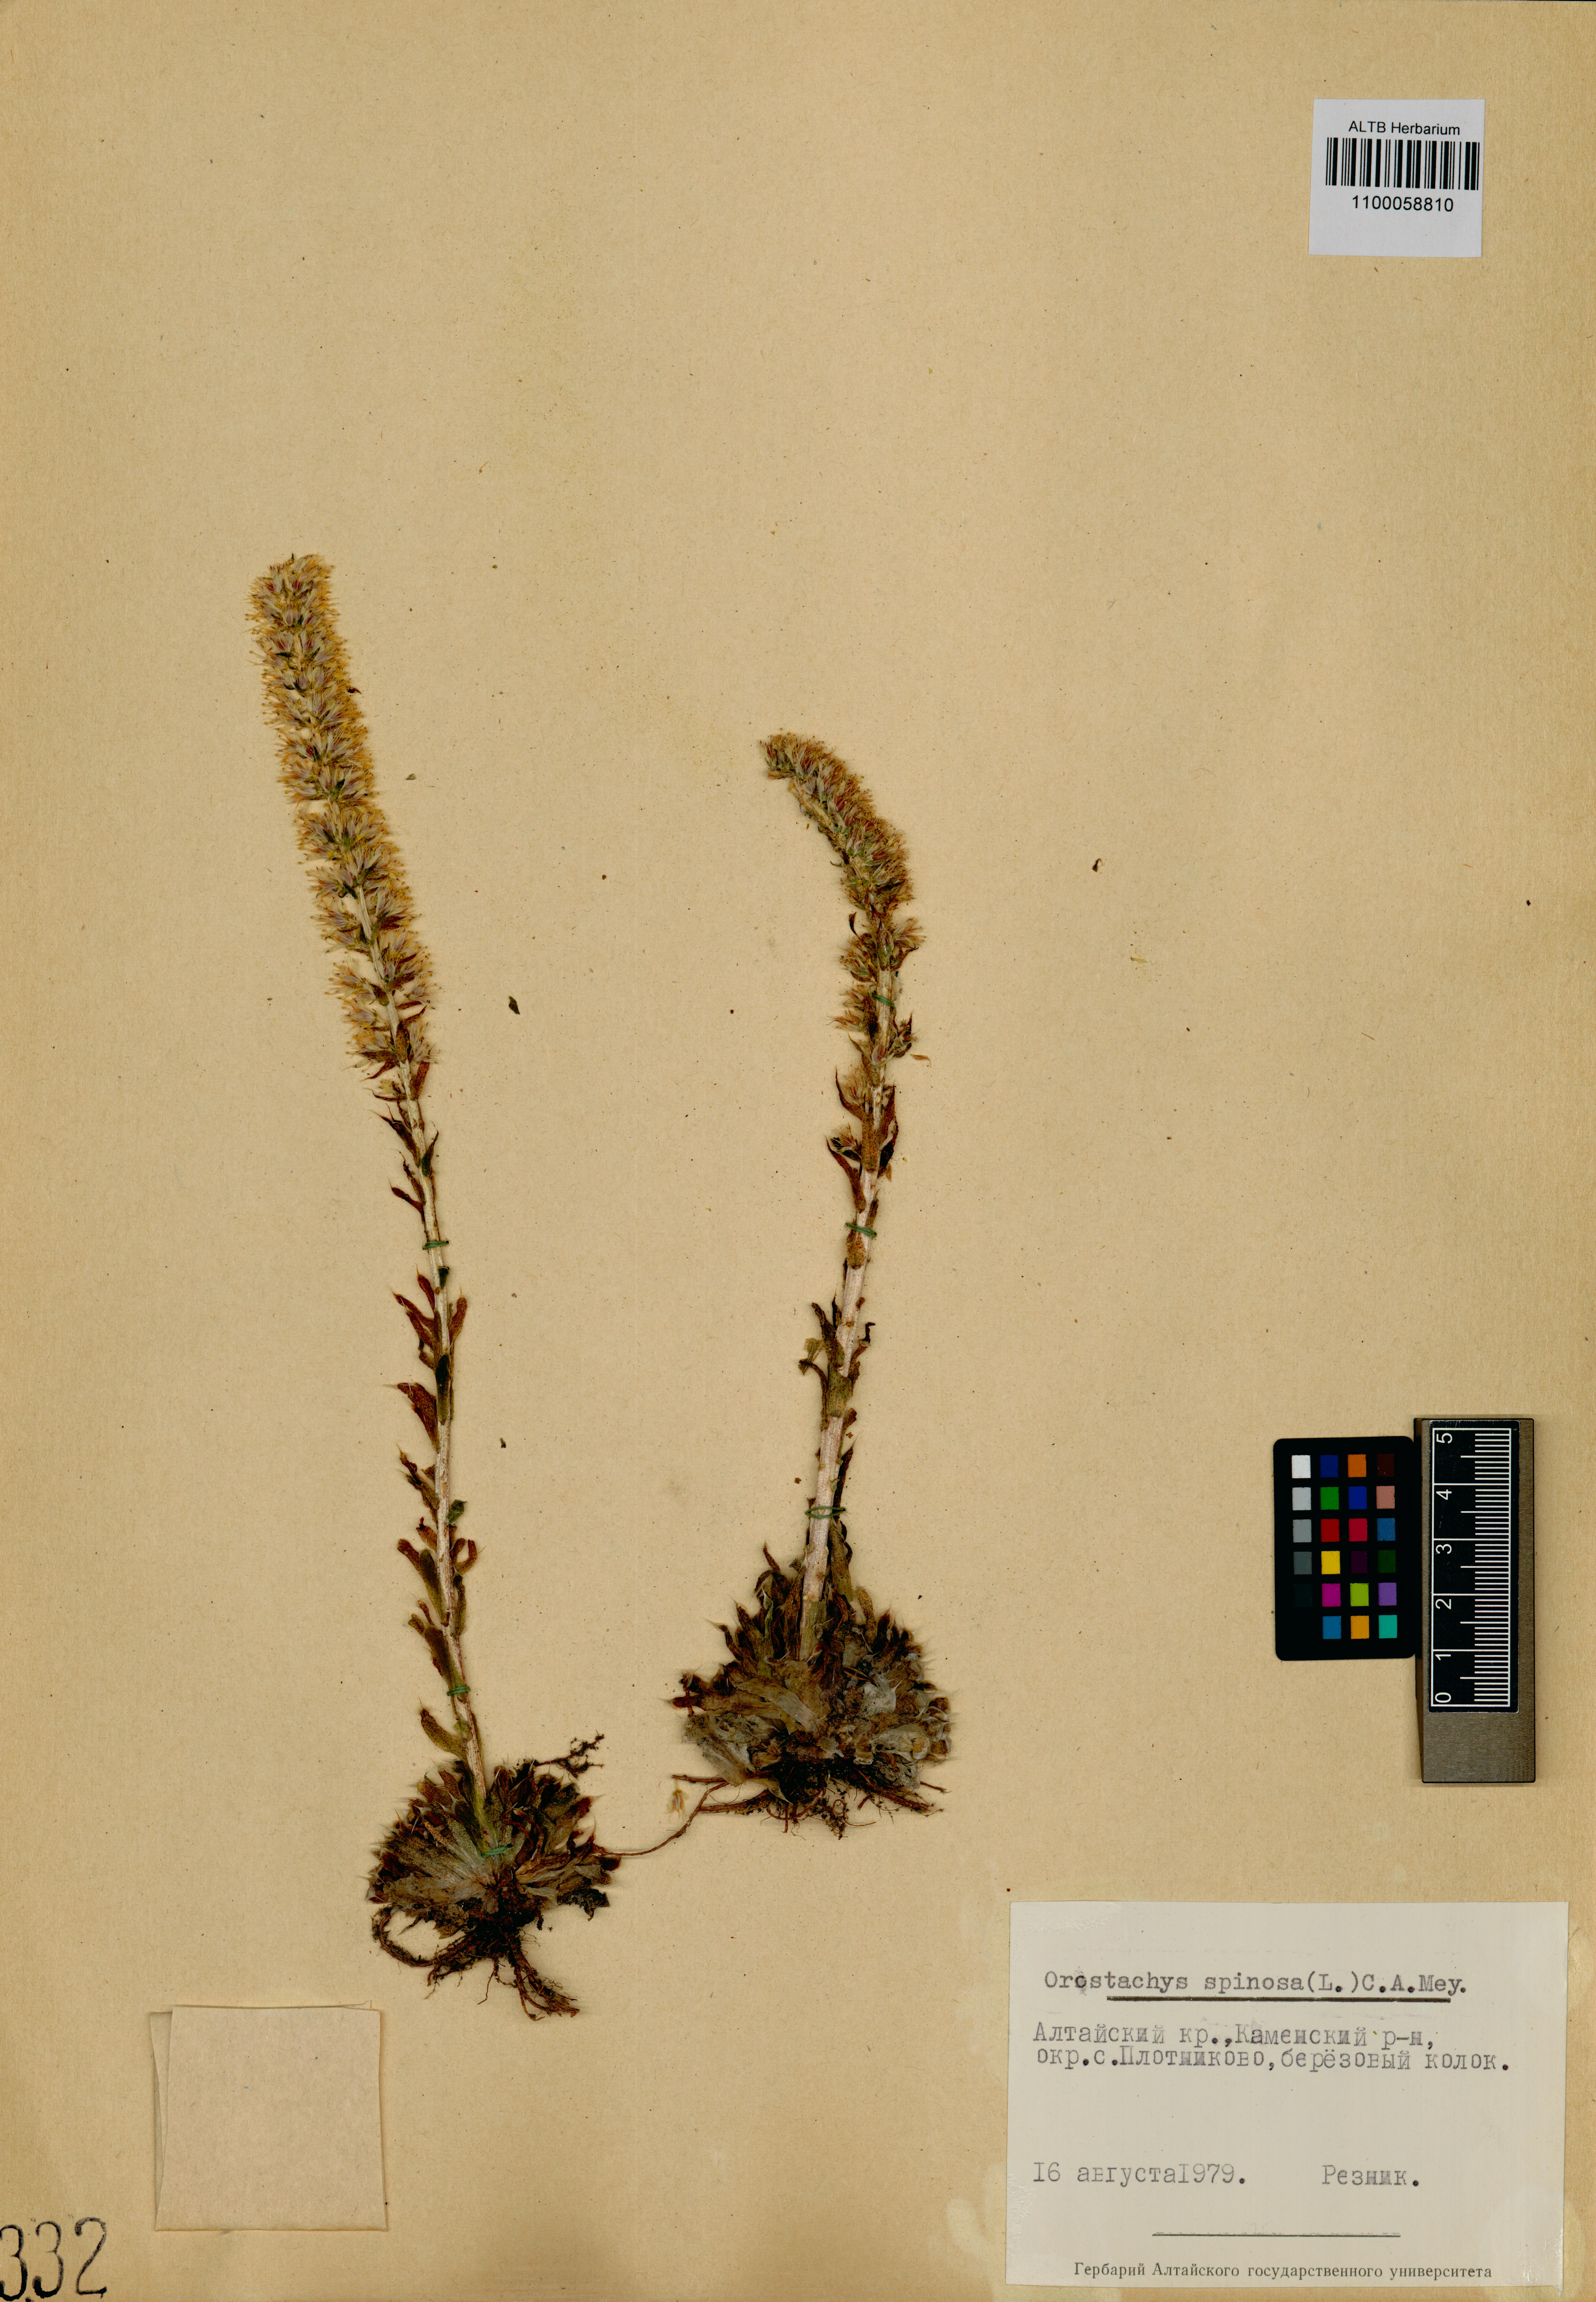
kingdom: Plantae
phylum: Tracheophyta
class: Magnoliopsida
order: Saxifragales
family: Crassulaceae
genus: Orostachys
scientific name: Orostachys spinosa
